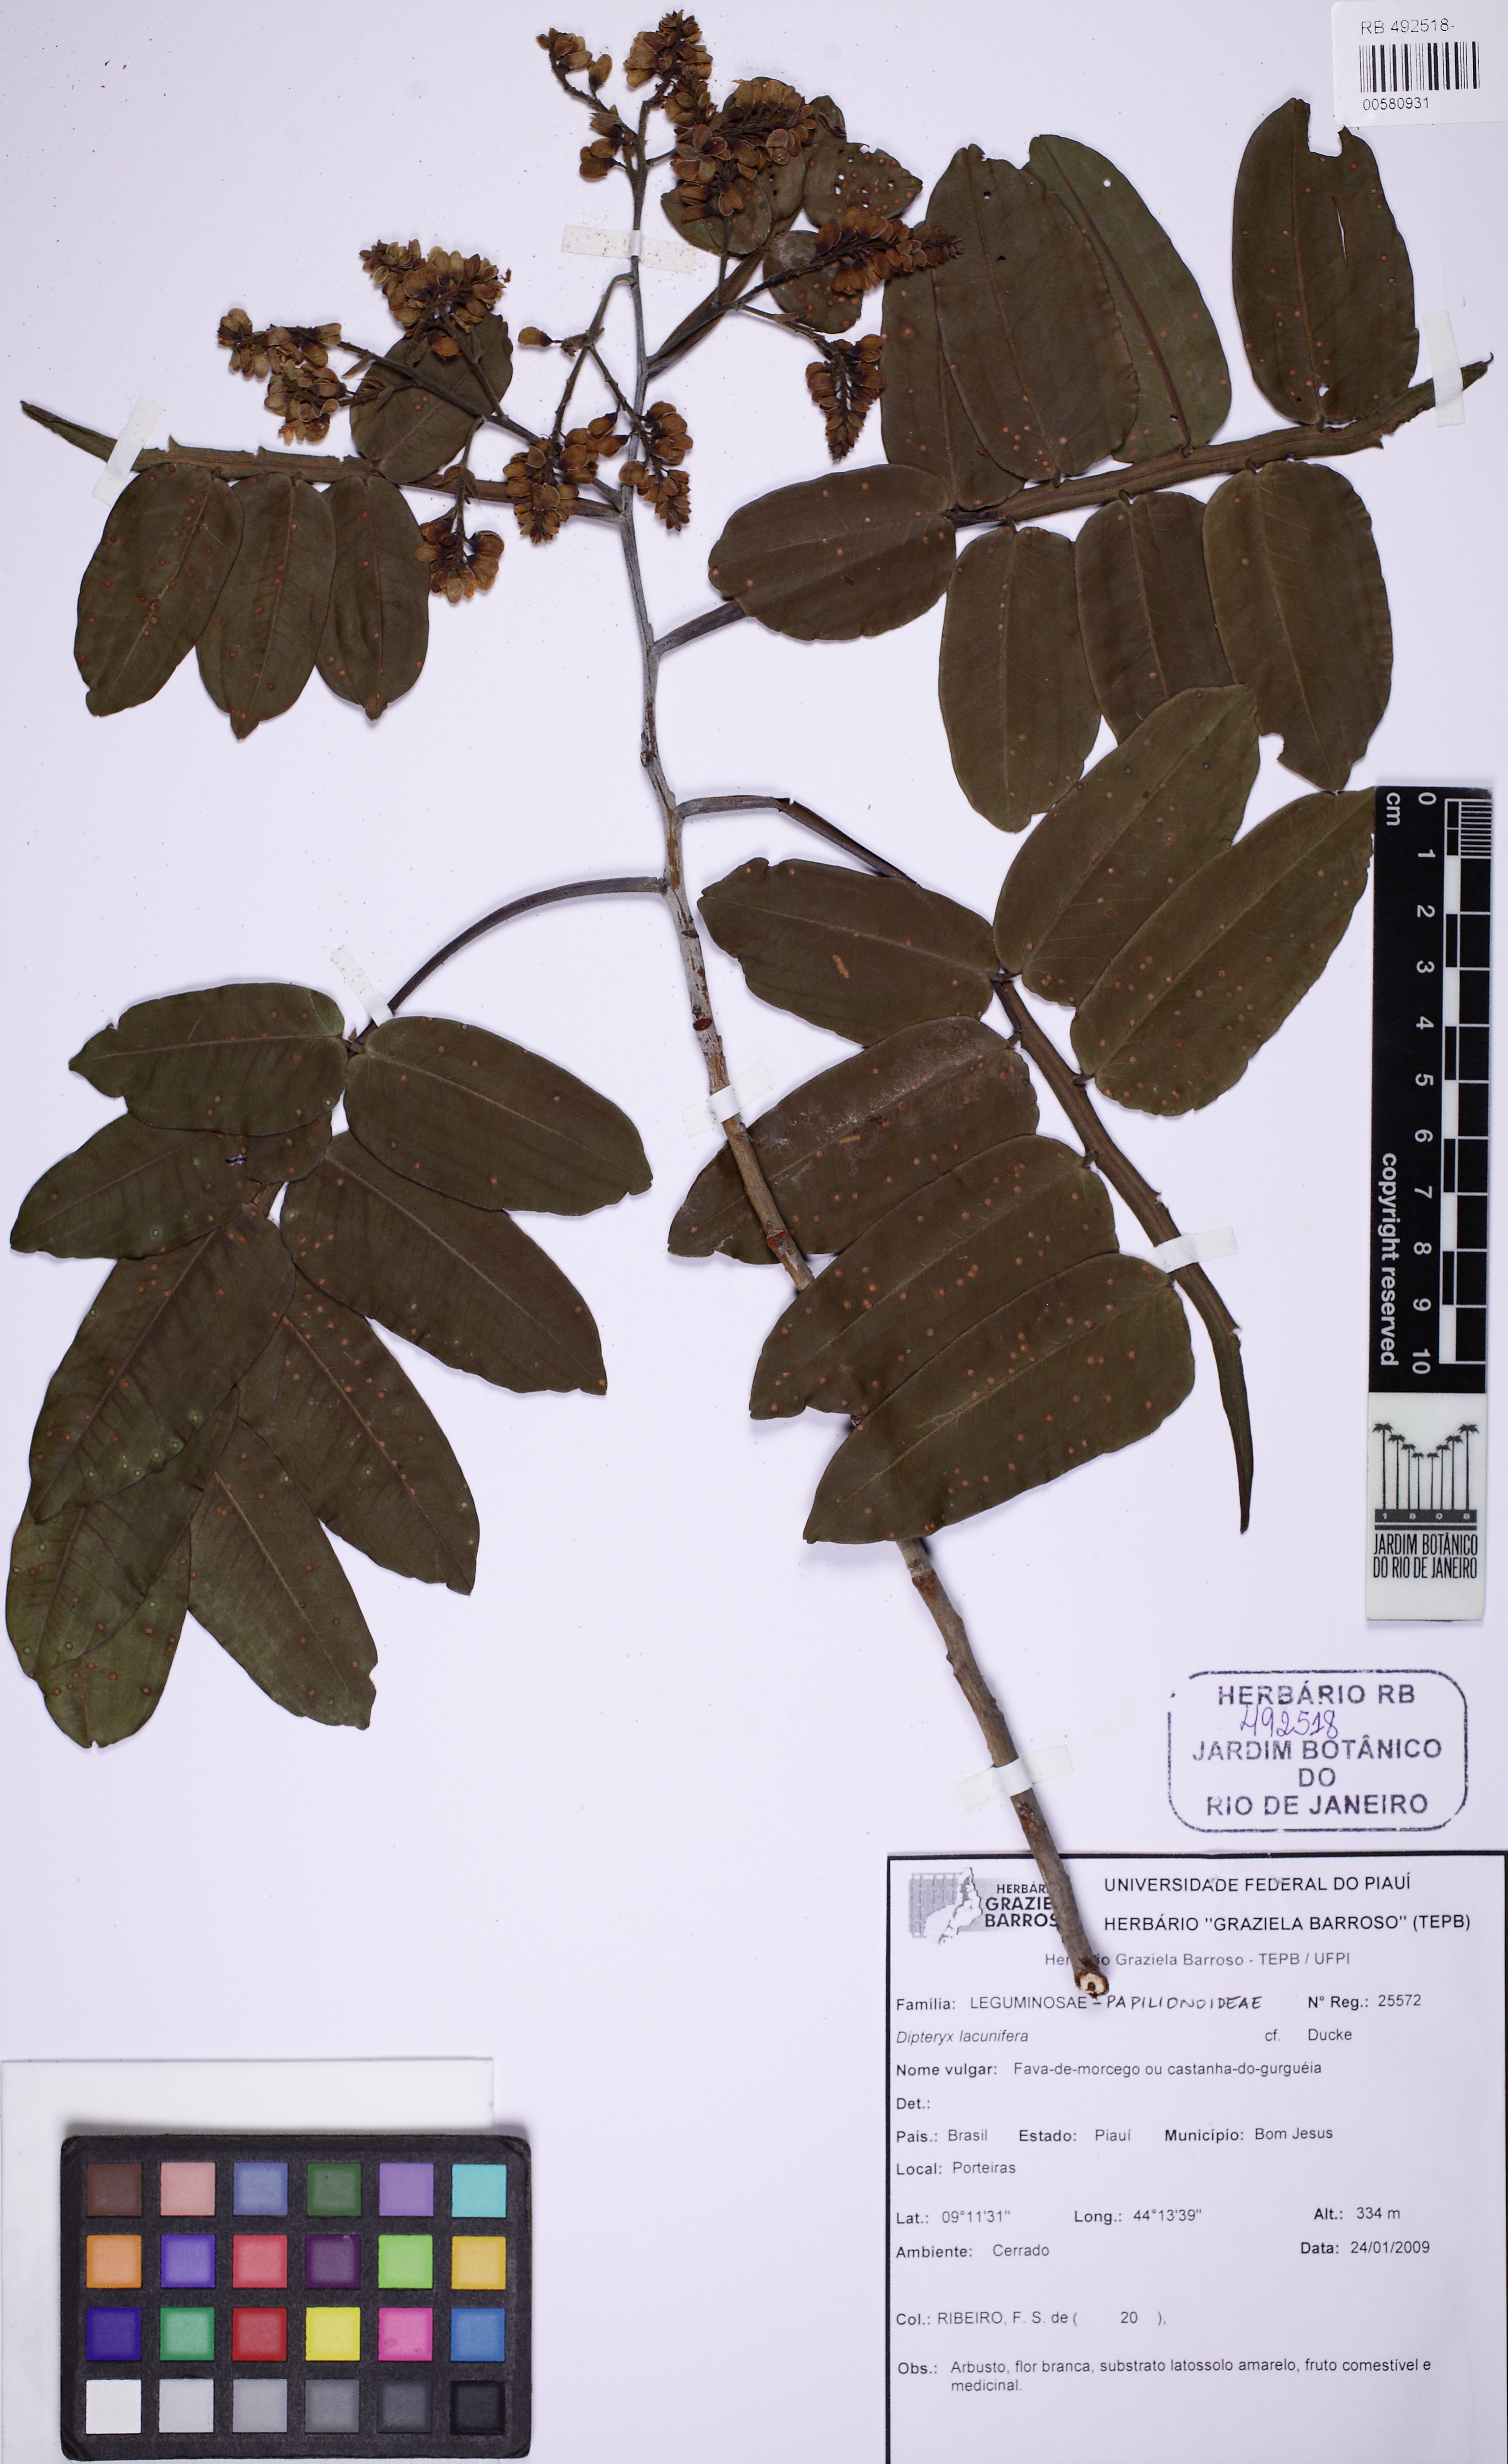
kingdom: Plantae
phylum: Tracheophyta
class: Magnoliopsida
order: Fabales
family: Fabaceae
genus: Dipteryx
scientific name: Dipteryx lacunifera
